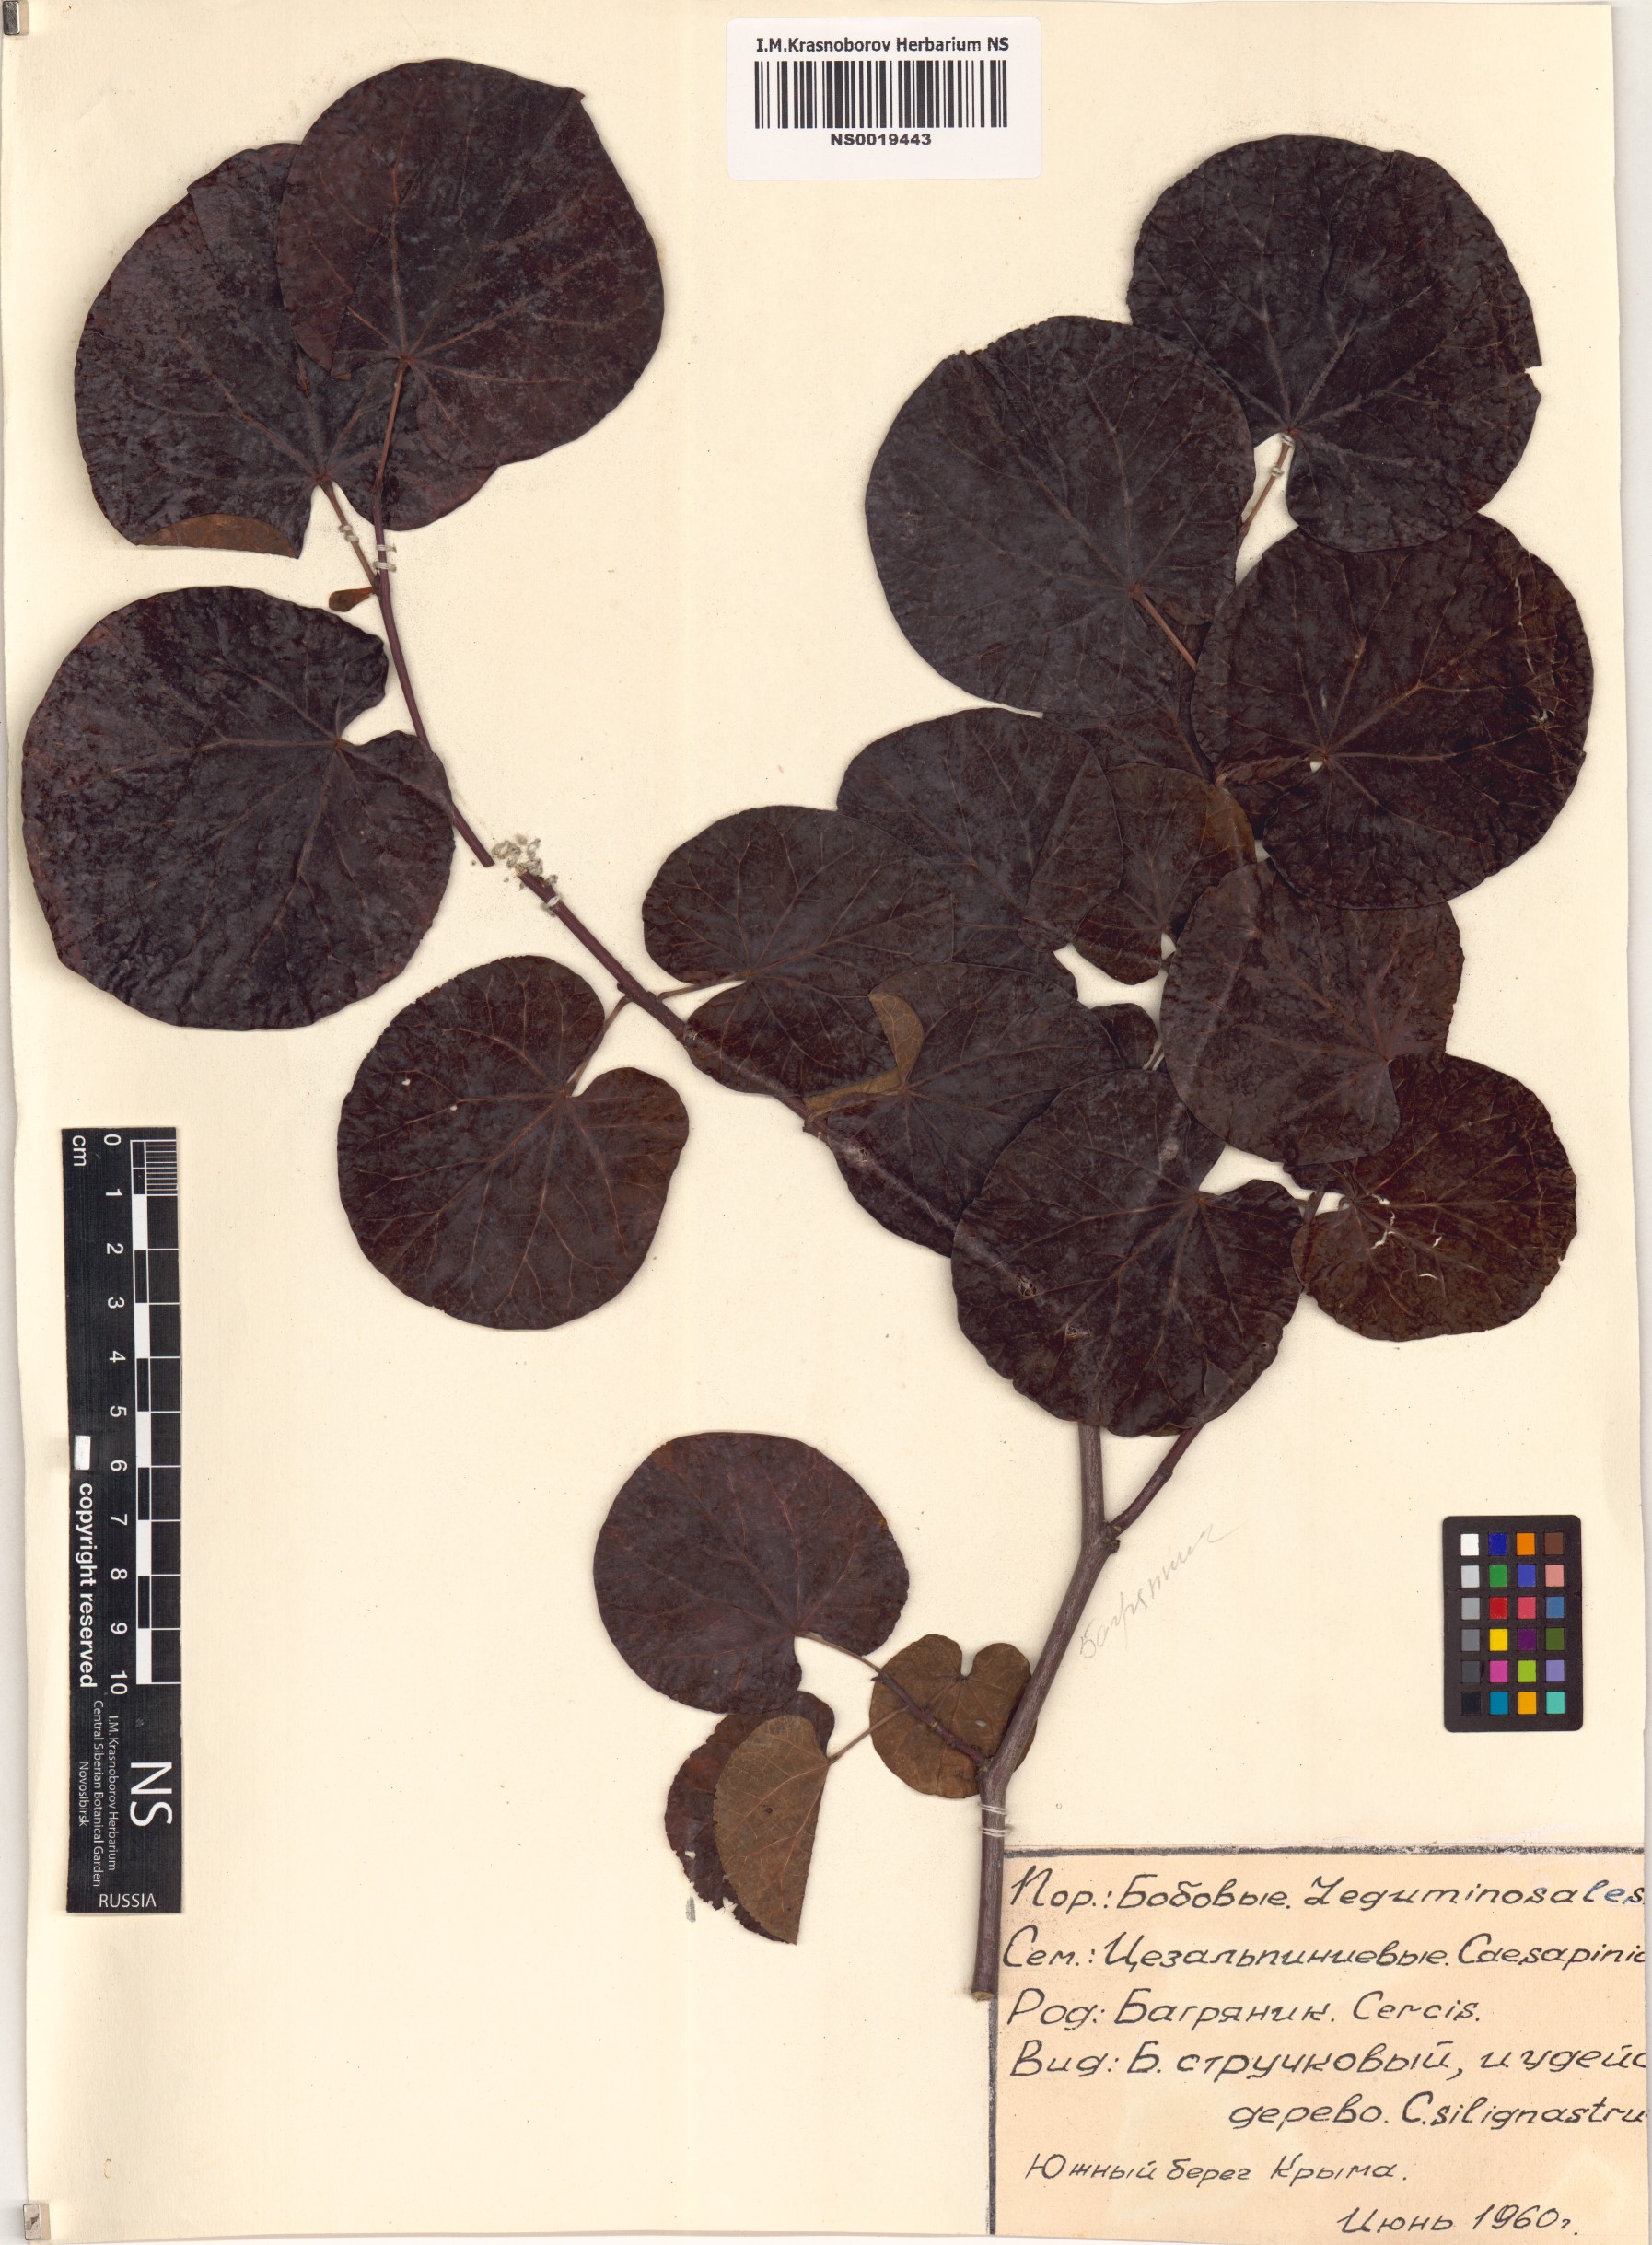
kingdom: Plantae
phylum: Tracheophyta
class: Magnoliopsida
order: Fabales
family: Fabaceae
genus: Cercis
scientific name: Cercis siliquastrum
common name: Judas tree
